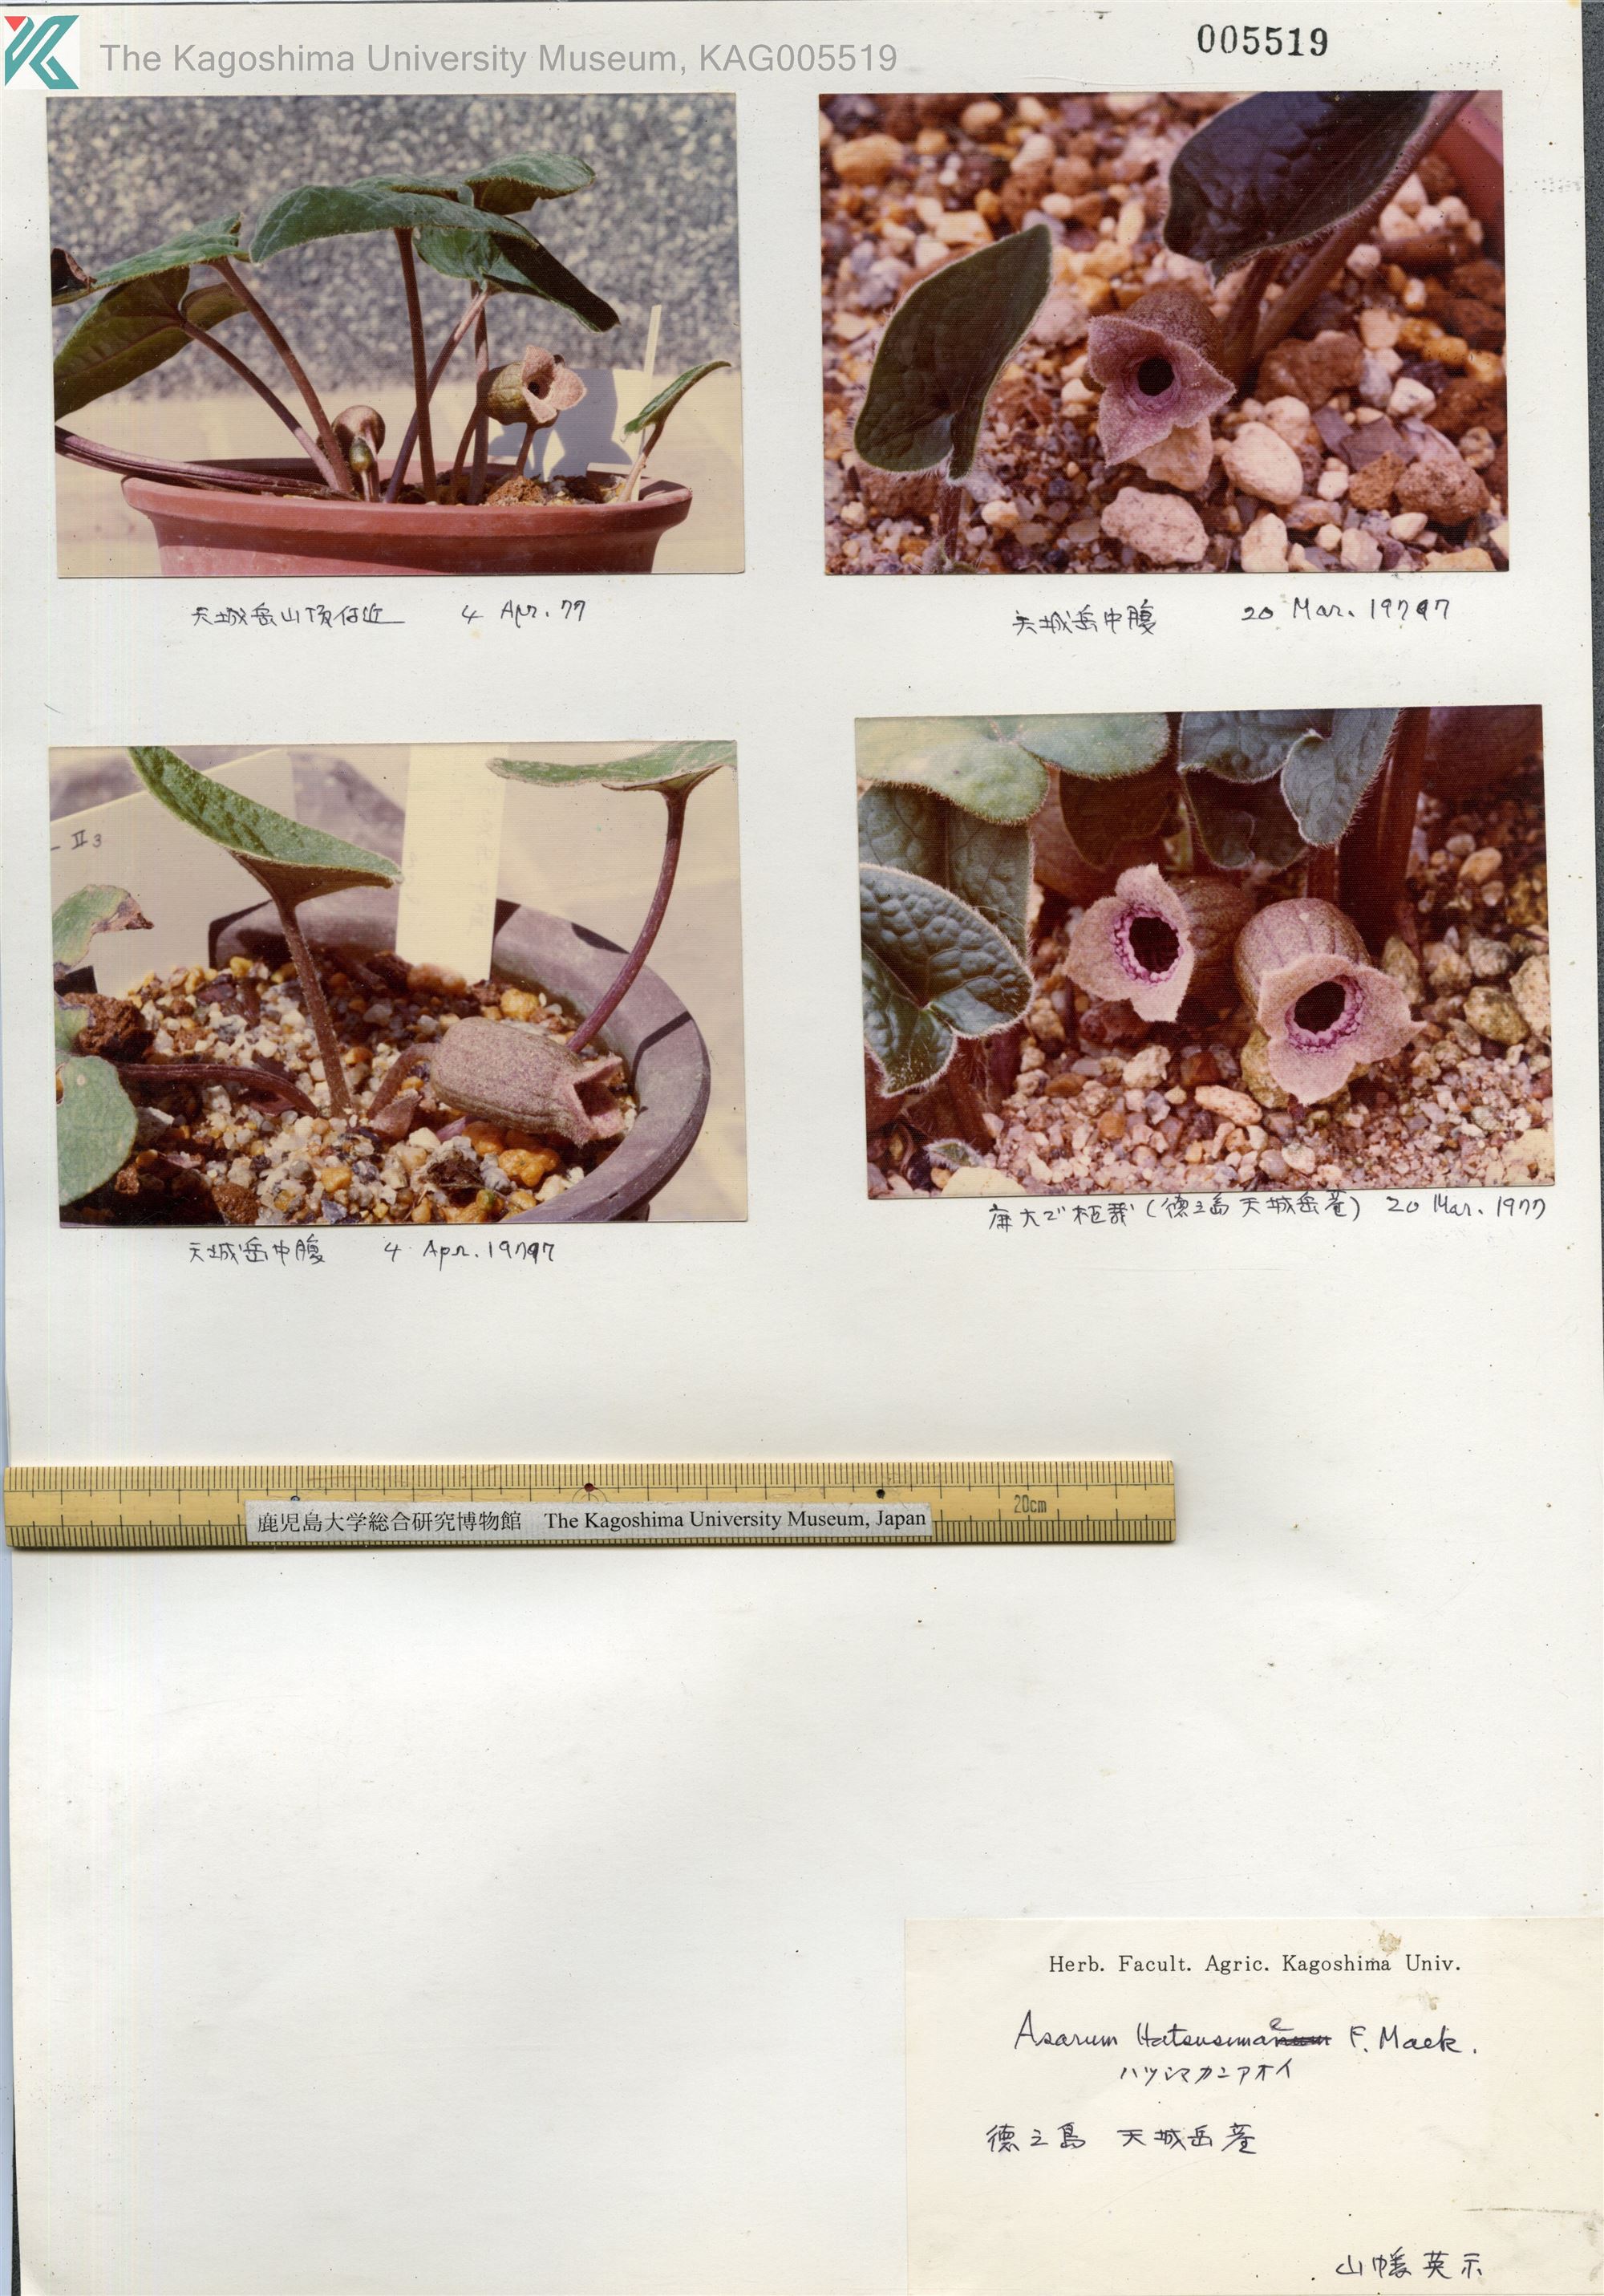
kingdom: Plantae
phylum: Tracheophyta
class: Magnoliopsida
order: Piperales
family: Aristolochiaceae
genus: Asarum
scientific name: Asarum hatushimae
